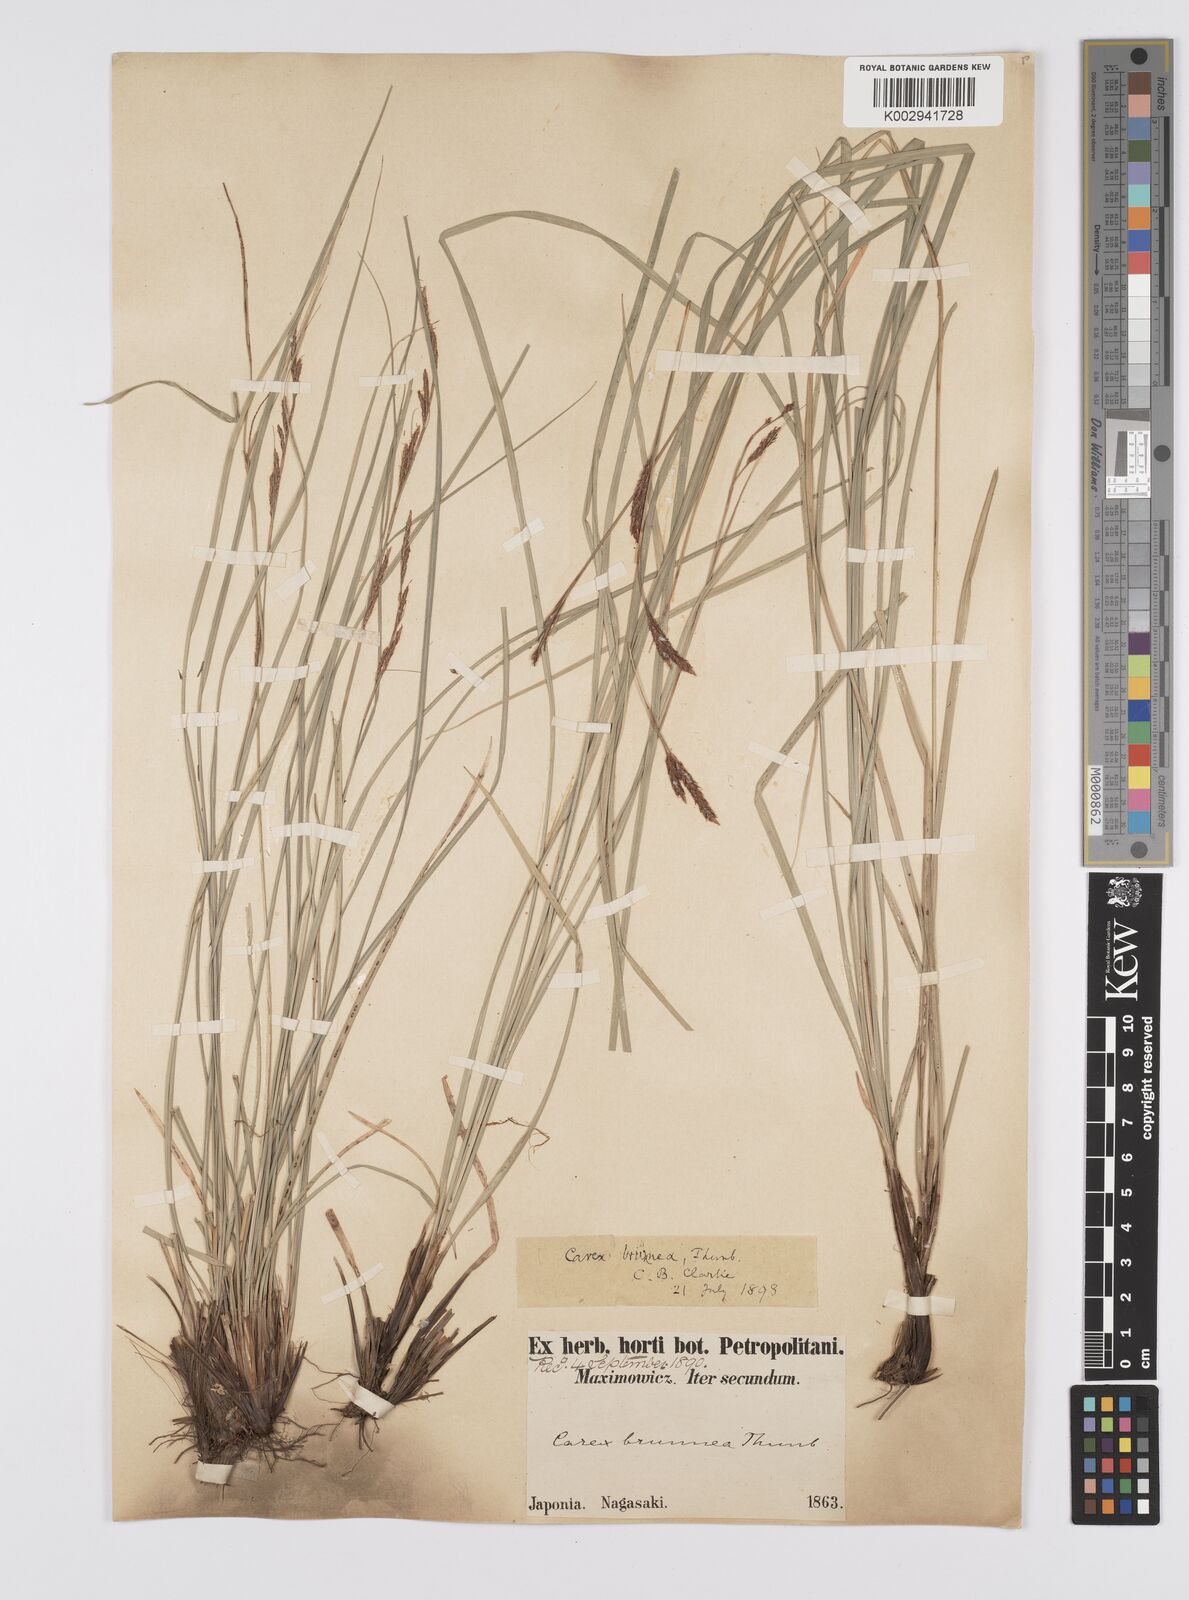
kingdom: Plantae
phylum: Tracheophyta
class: Liliopsida
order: Poales
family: Cyperaceae
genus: Carex
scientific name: Carex brunnea
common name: Greater brown sedge
